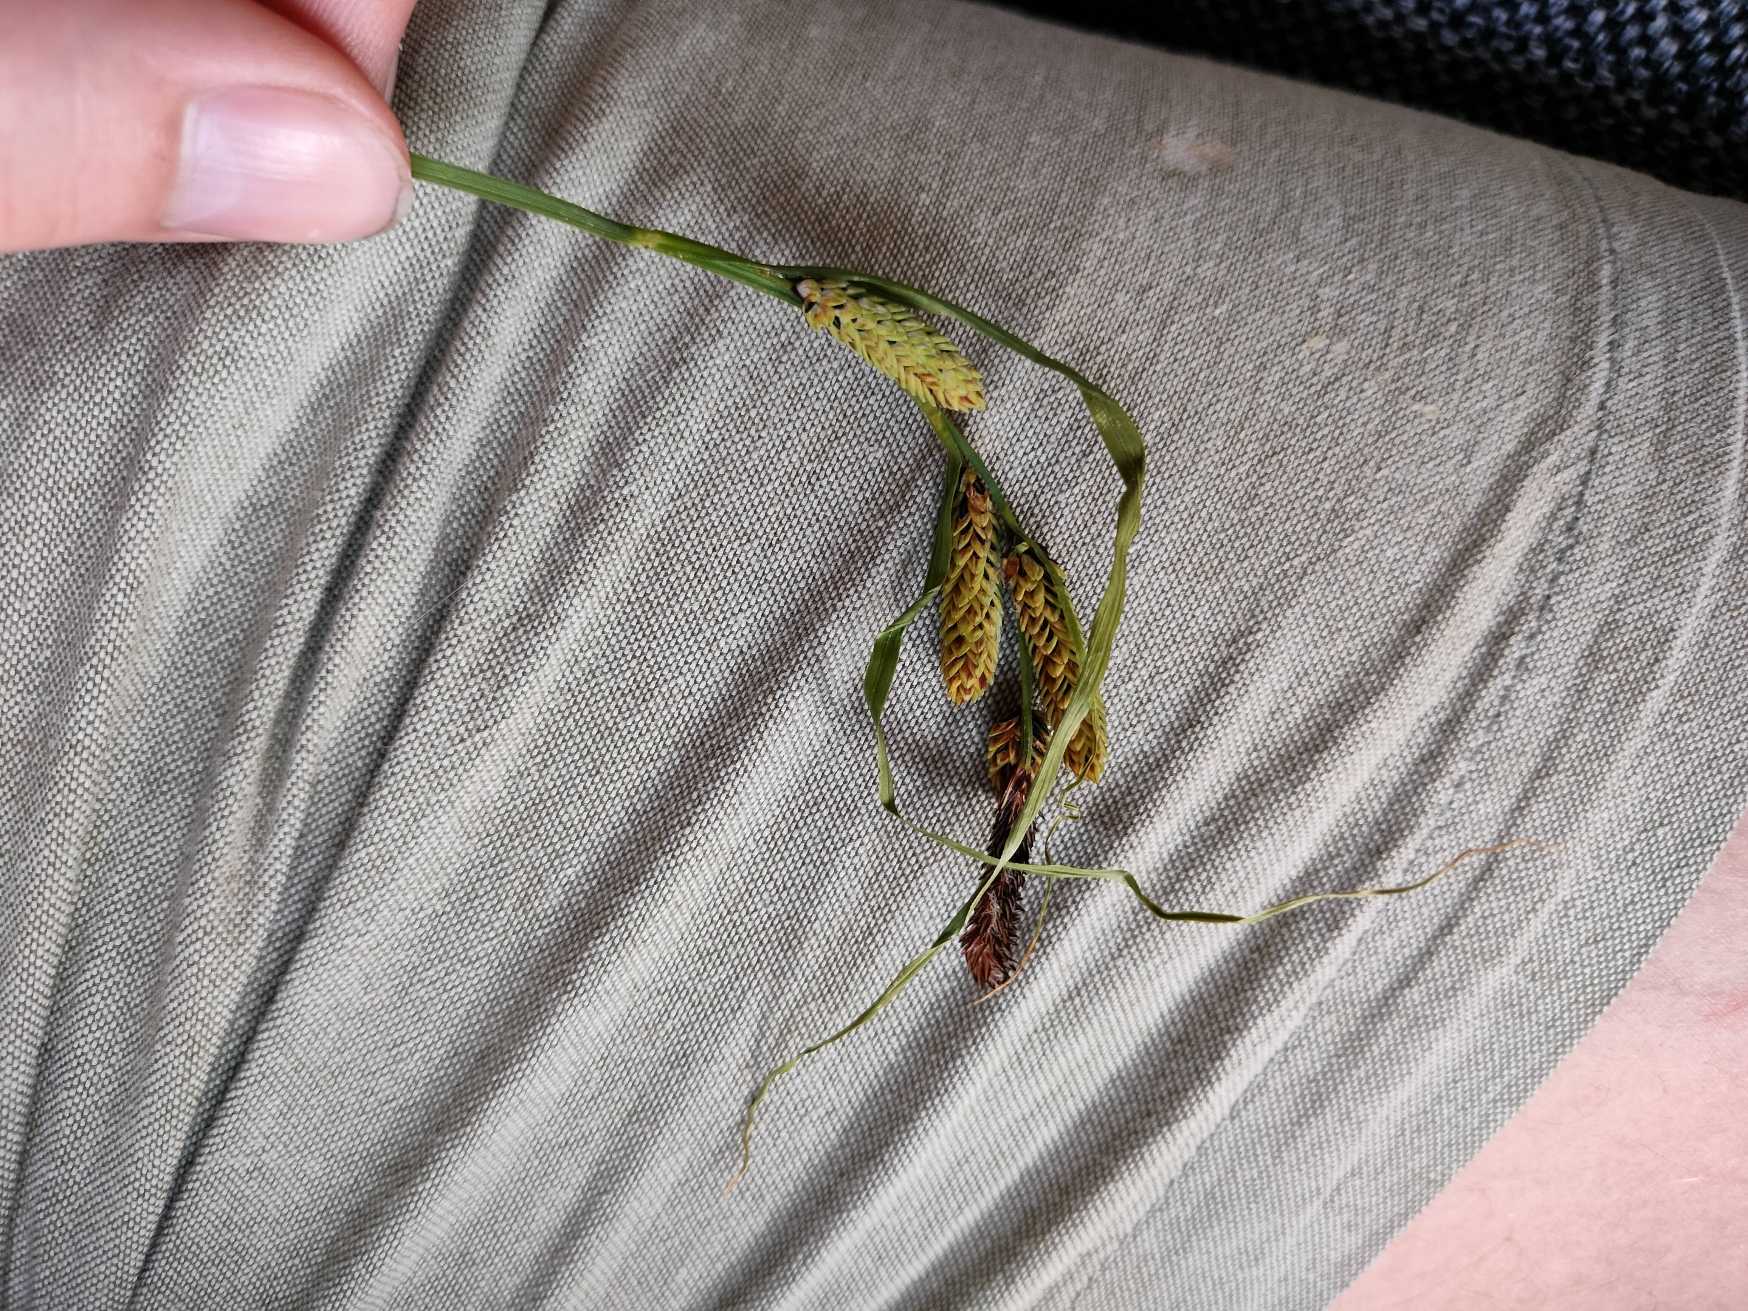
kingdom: Plantae
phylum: Tracheophyta
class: Liliopsida
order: Poales
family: Cyperaceae
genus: Carex
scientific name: Carex acuta
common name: Nikkende star
